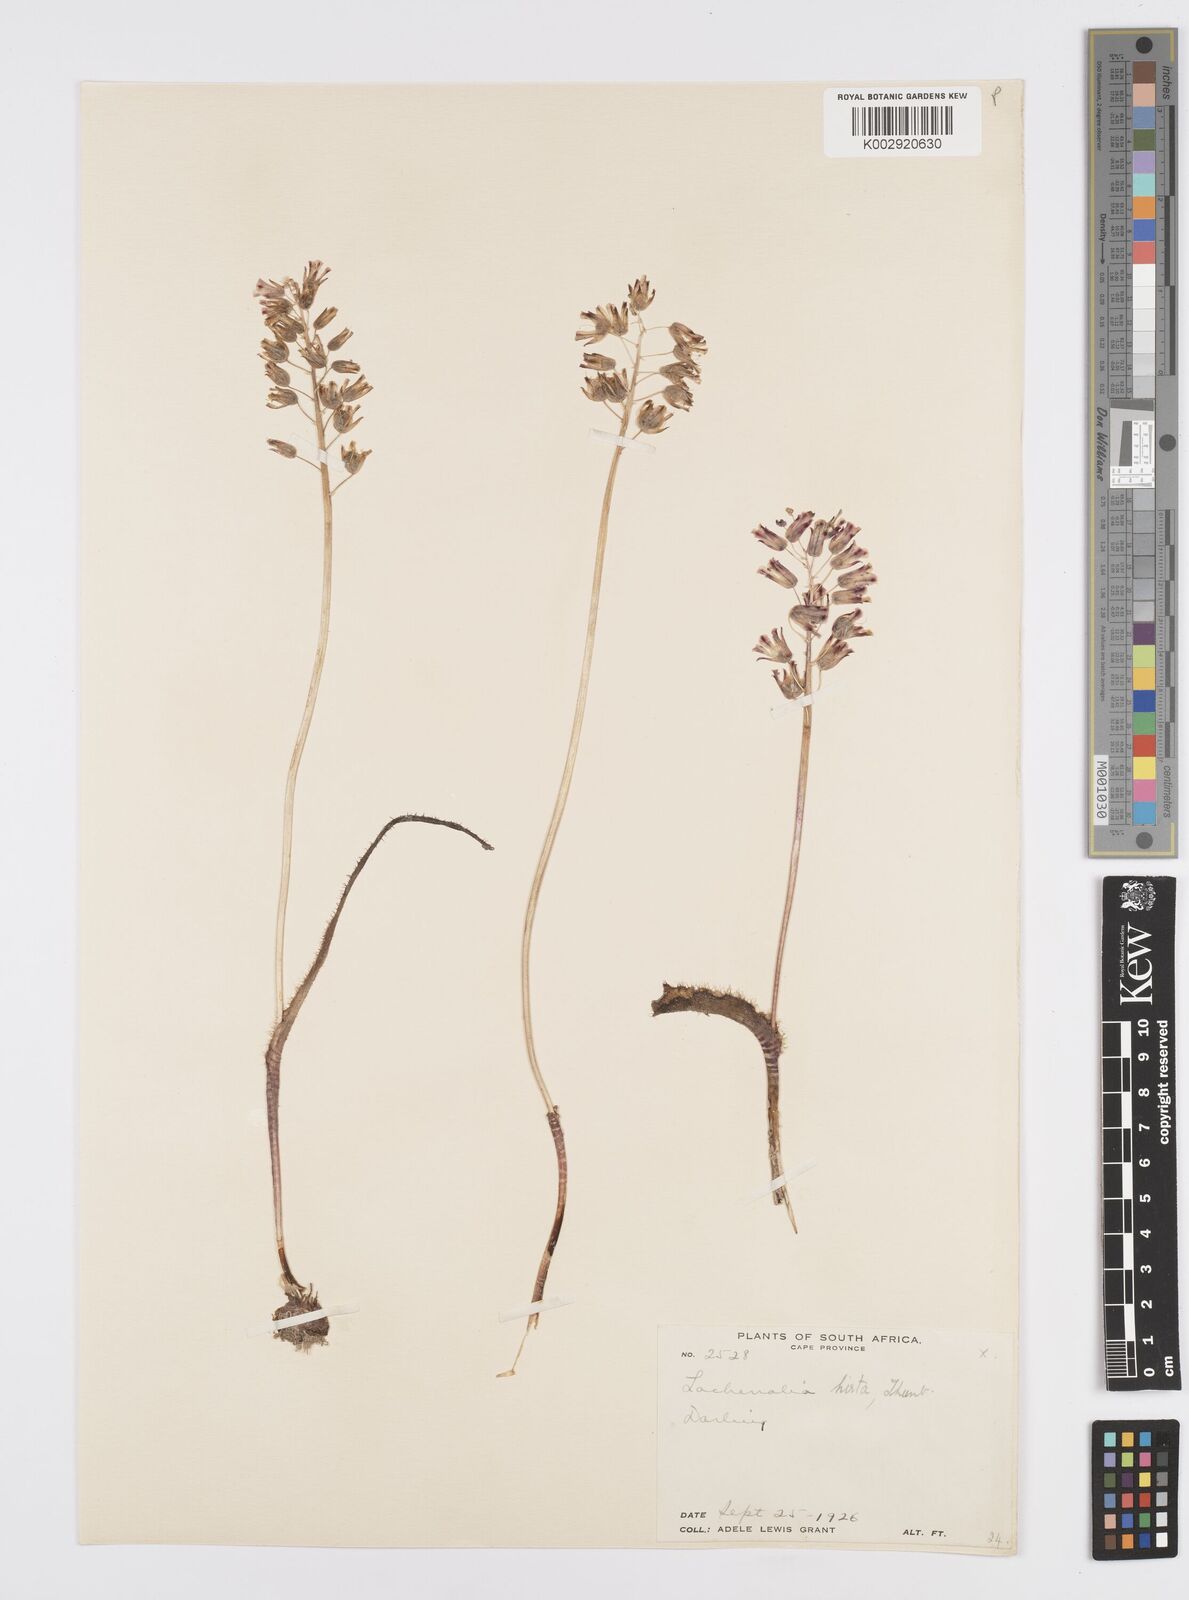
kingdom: Plantae
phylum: Tracheophyta
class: Liliopsida
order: Asparagales
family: Asparagaceae
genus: Lachenalia
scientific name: Lachenalia hirta
